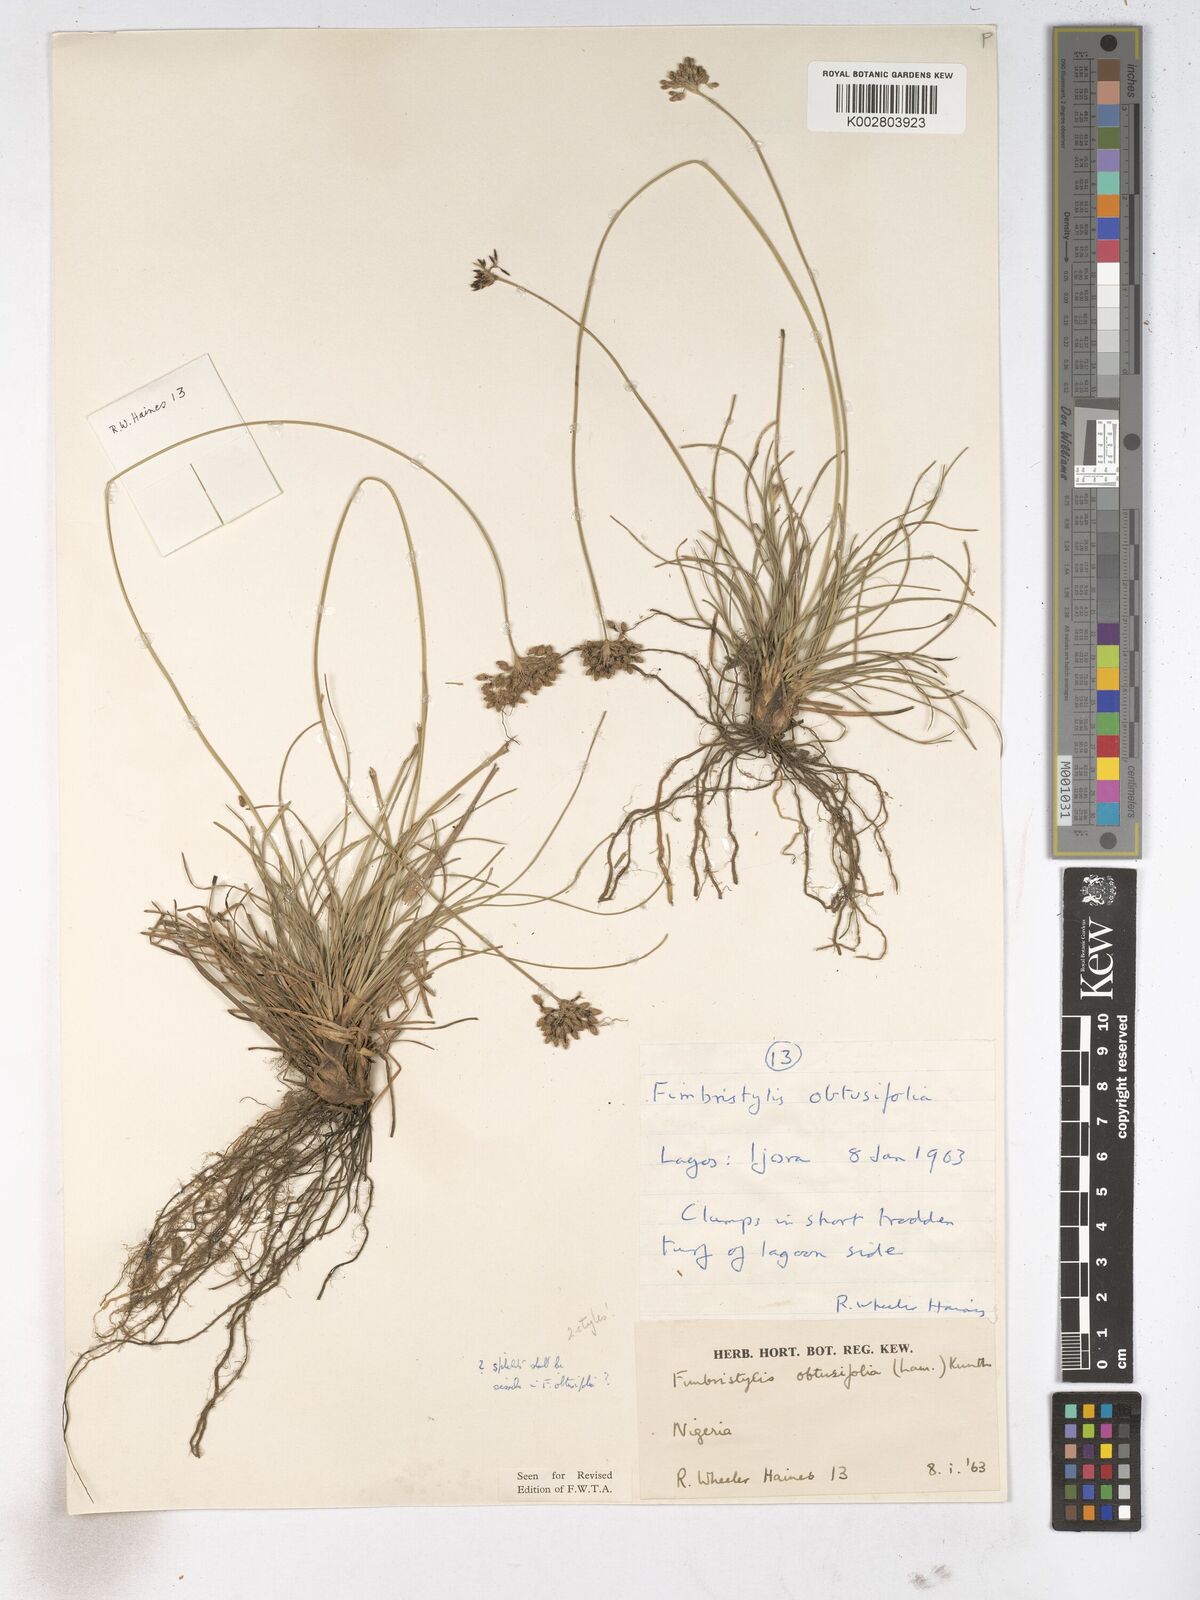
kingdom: Plantae
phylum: Tracheophyta
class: Liliopsida
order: Poales
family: Cyperaceae
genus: Fimbristylis
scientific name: Fimbristylis cymosa
